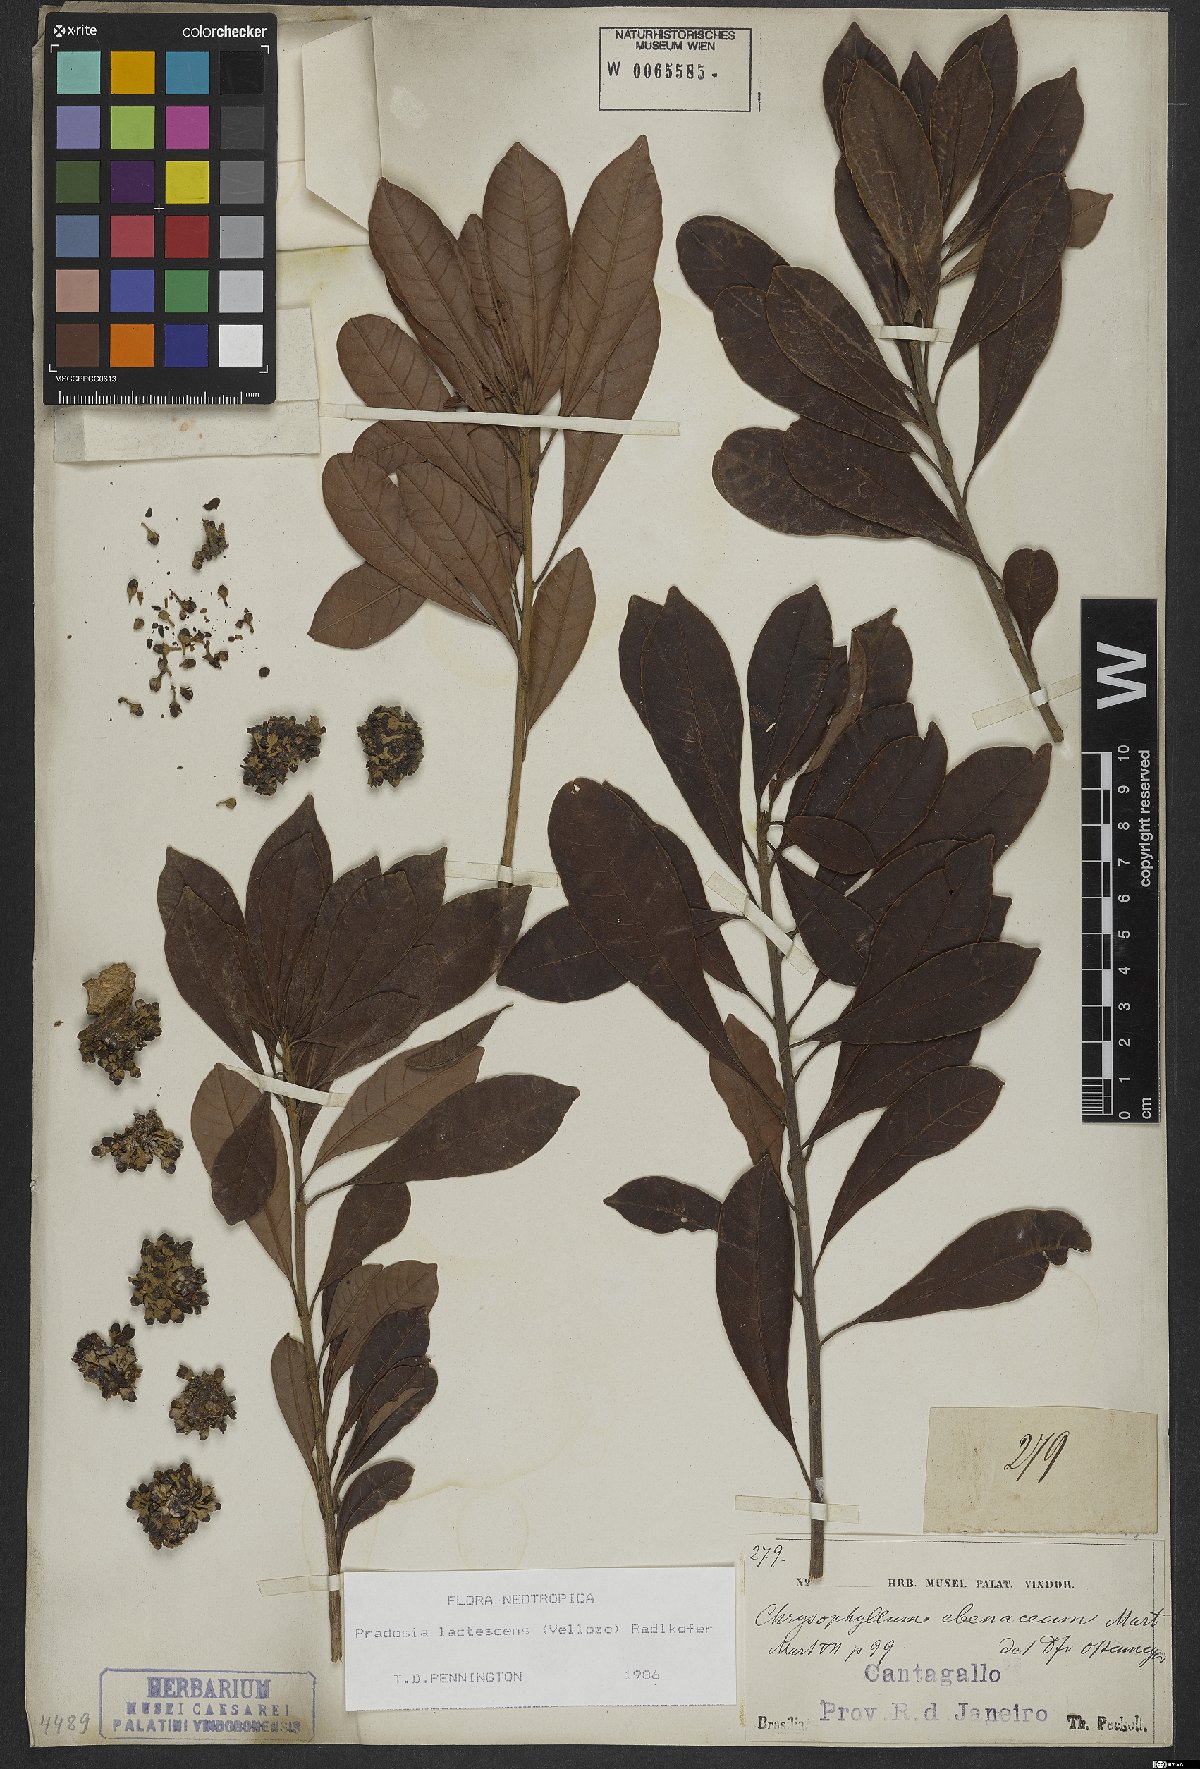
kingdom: Plantae
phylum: Tracheophyta
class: Magnoliopsida
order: Ericales
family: Sapotaceae
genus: Pradosia
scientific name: Pradosia lactescens
